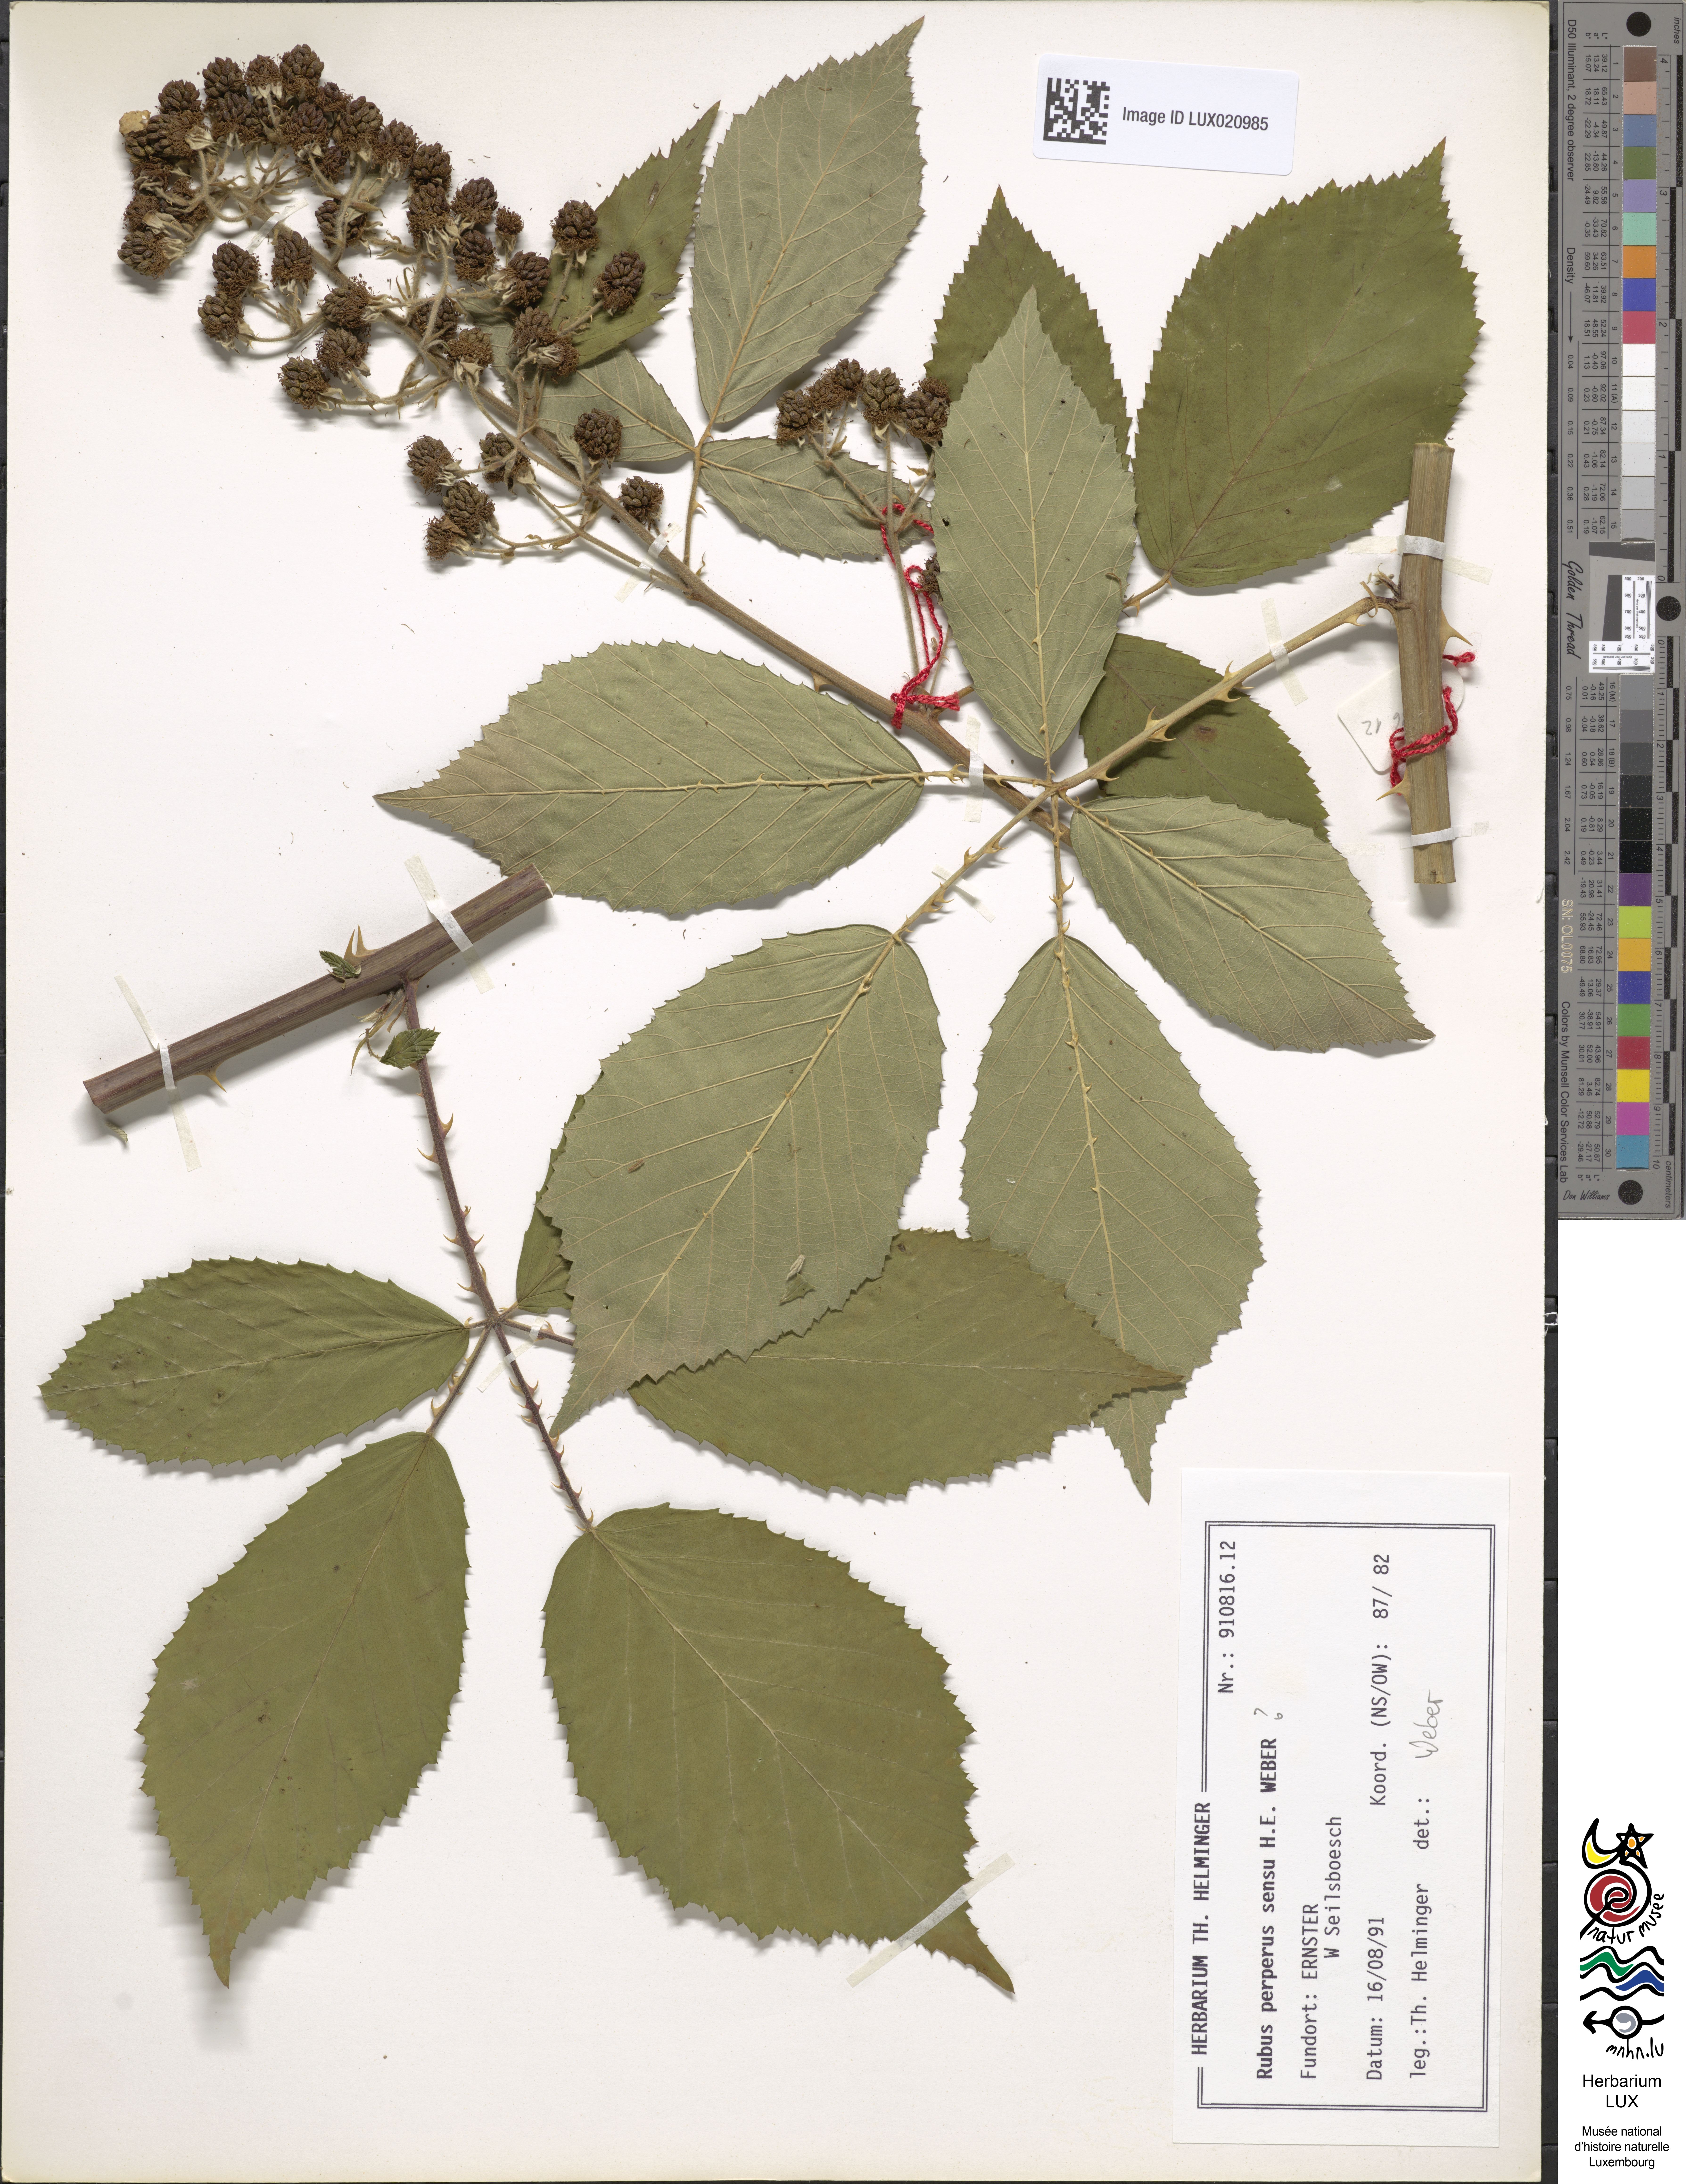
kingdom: Plantae
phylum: Tracheophyta
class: Magnoliopsida
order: Rosales
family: Rosaceae
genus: Rubus
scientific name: Rubus perperus
